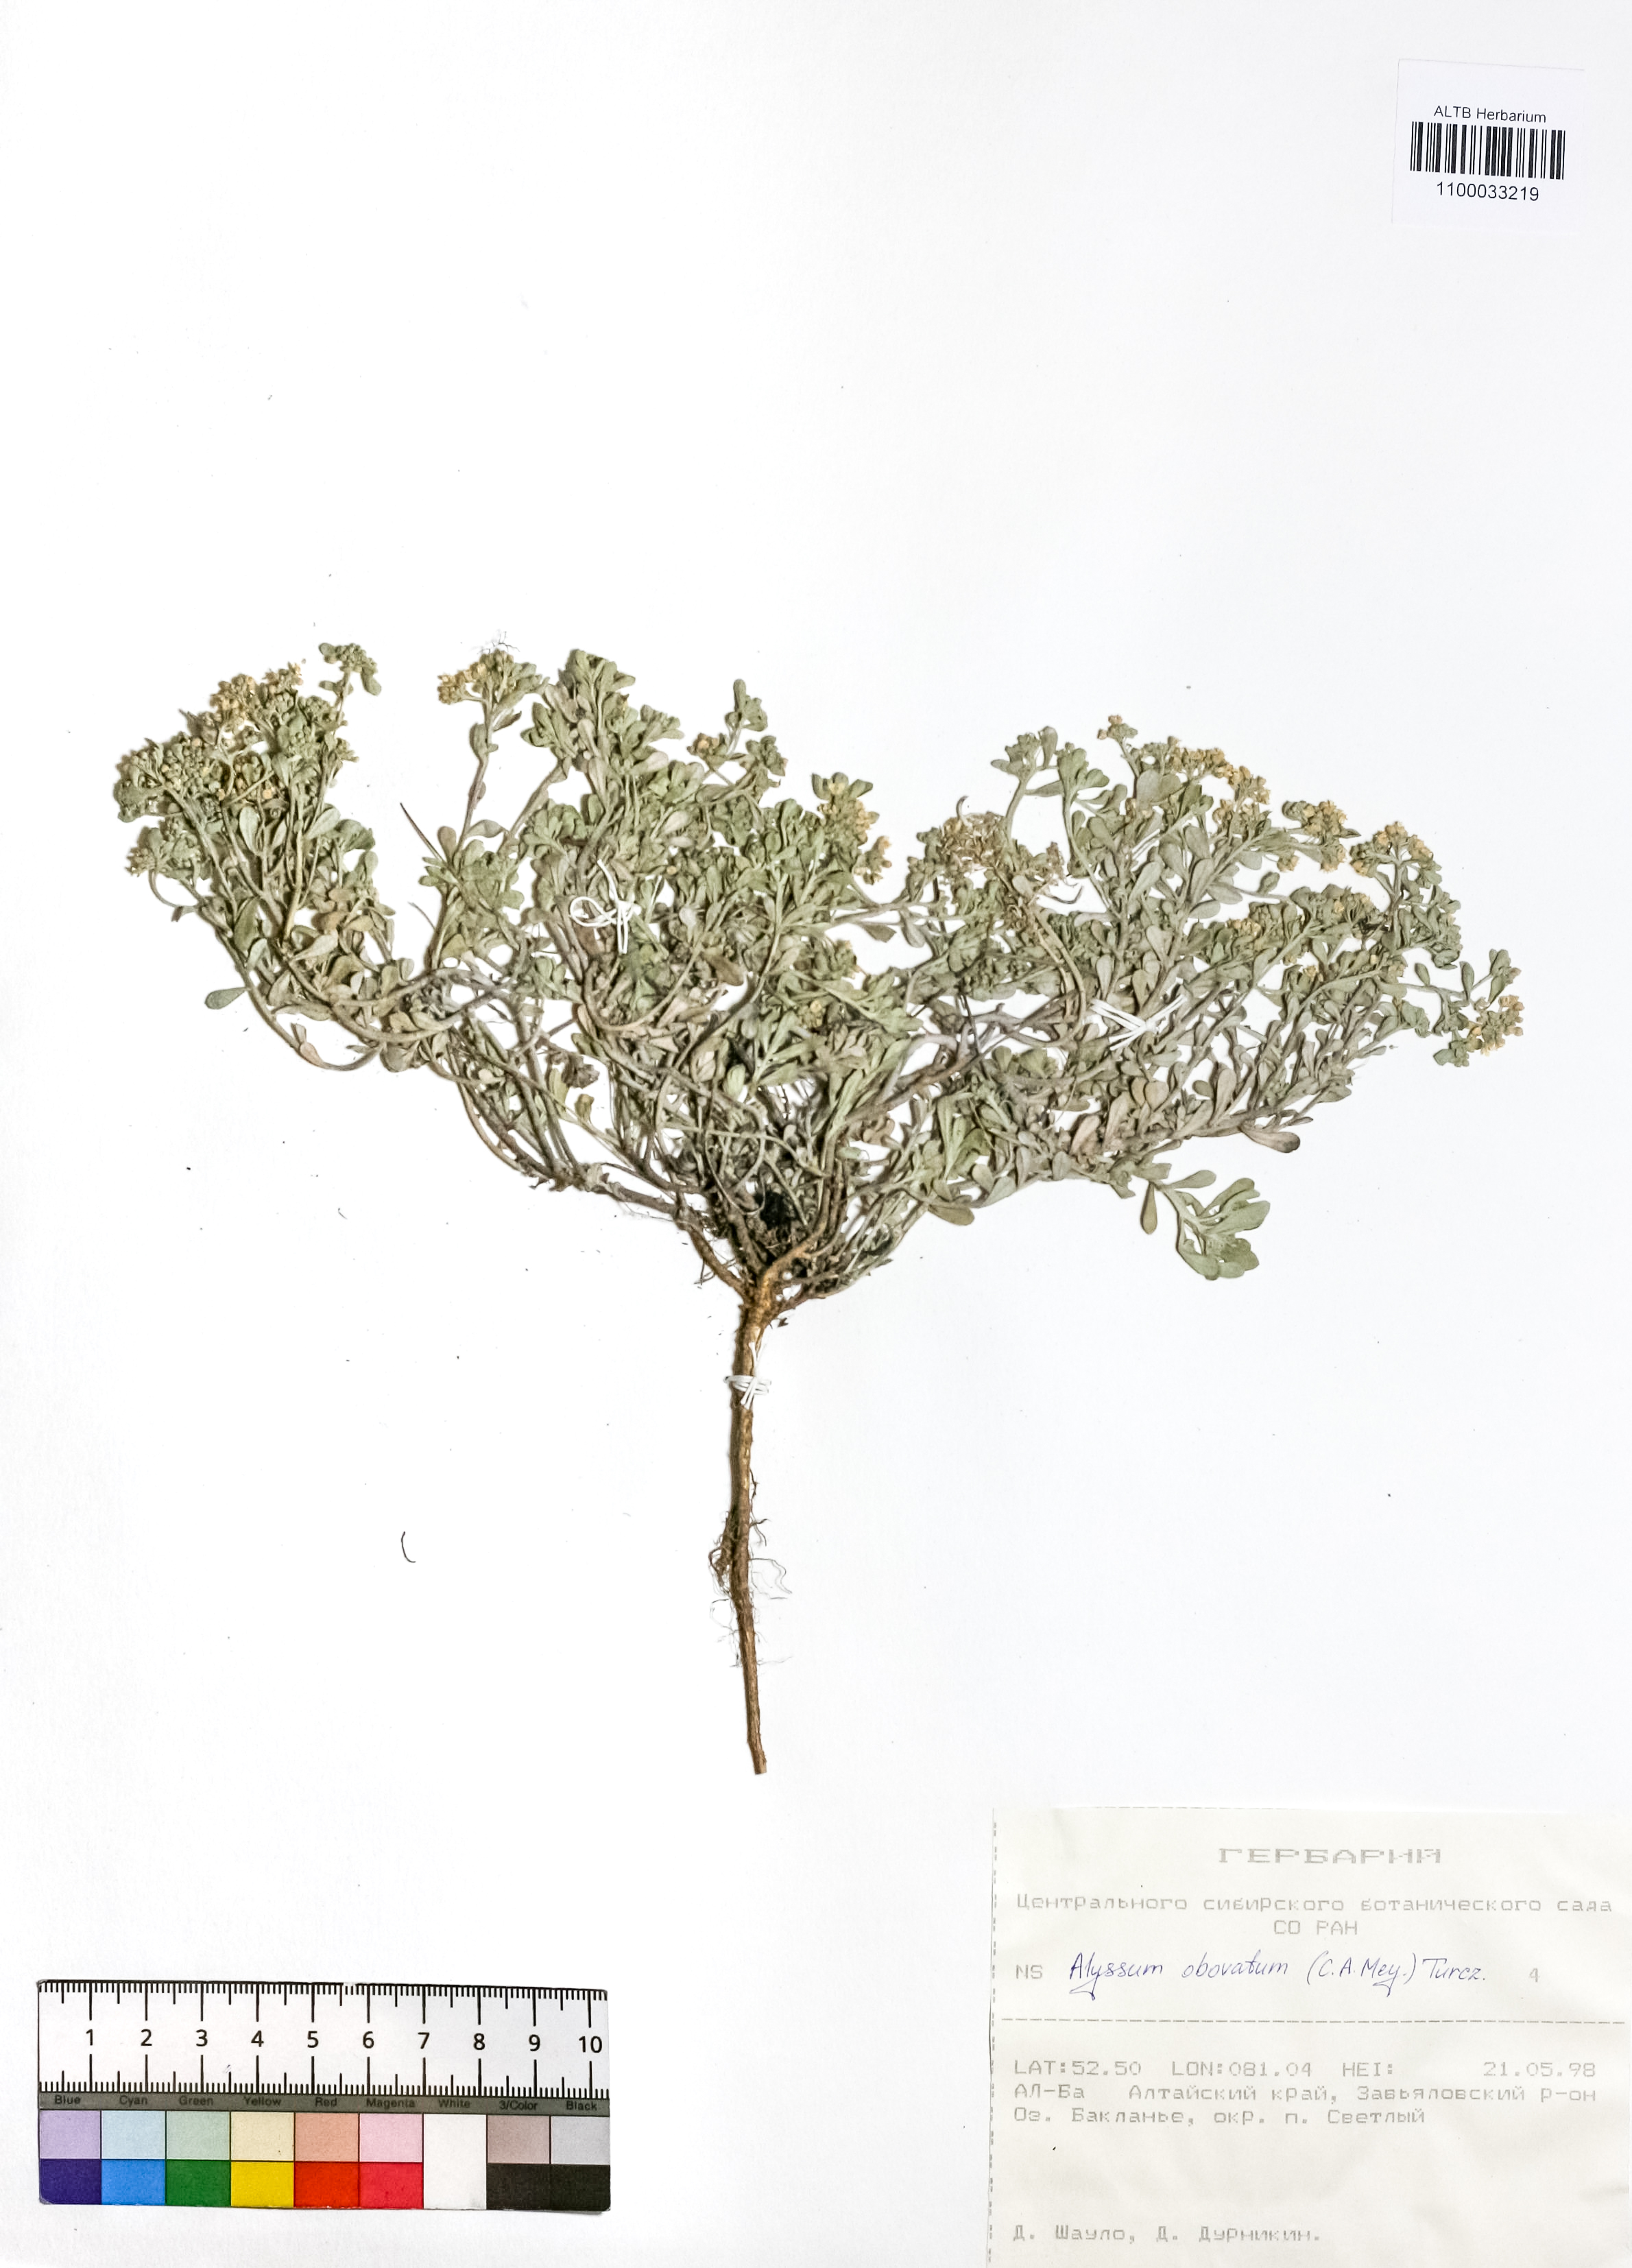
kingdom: Plantae
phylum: Tracheophyta
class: Magnoliopsida
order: Brassicales
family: Brassicaceae
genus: Odontarrhena
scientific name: Odontarrhena obovata
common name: American alyssum
